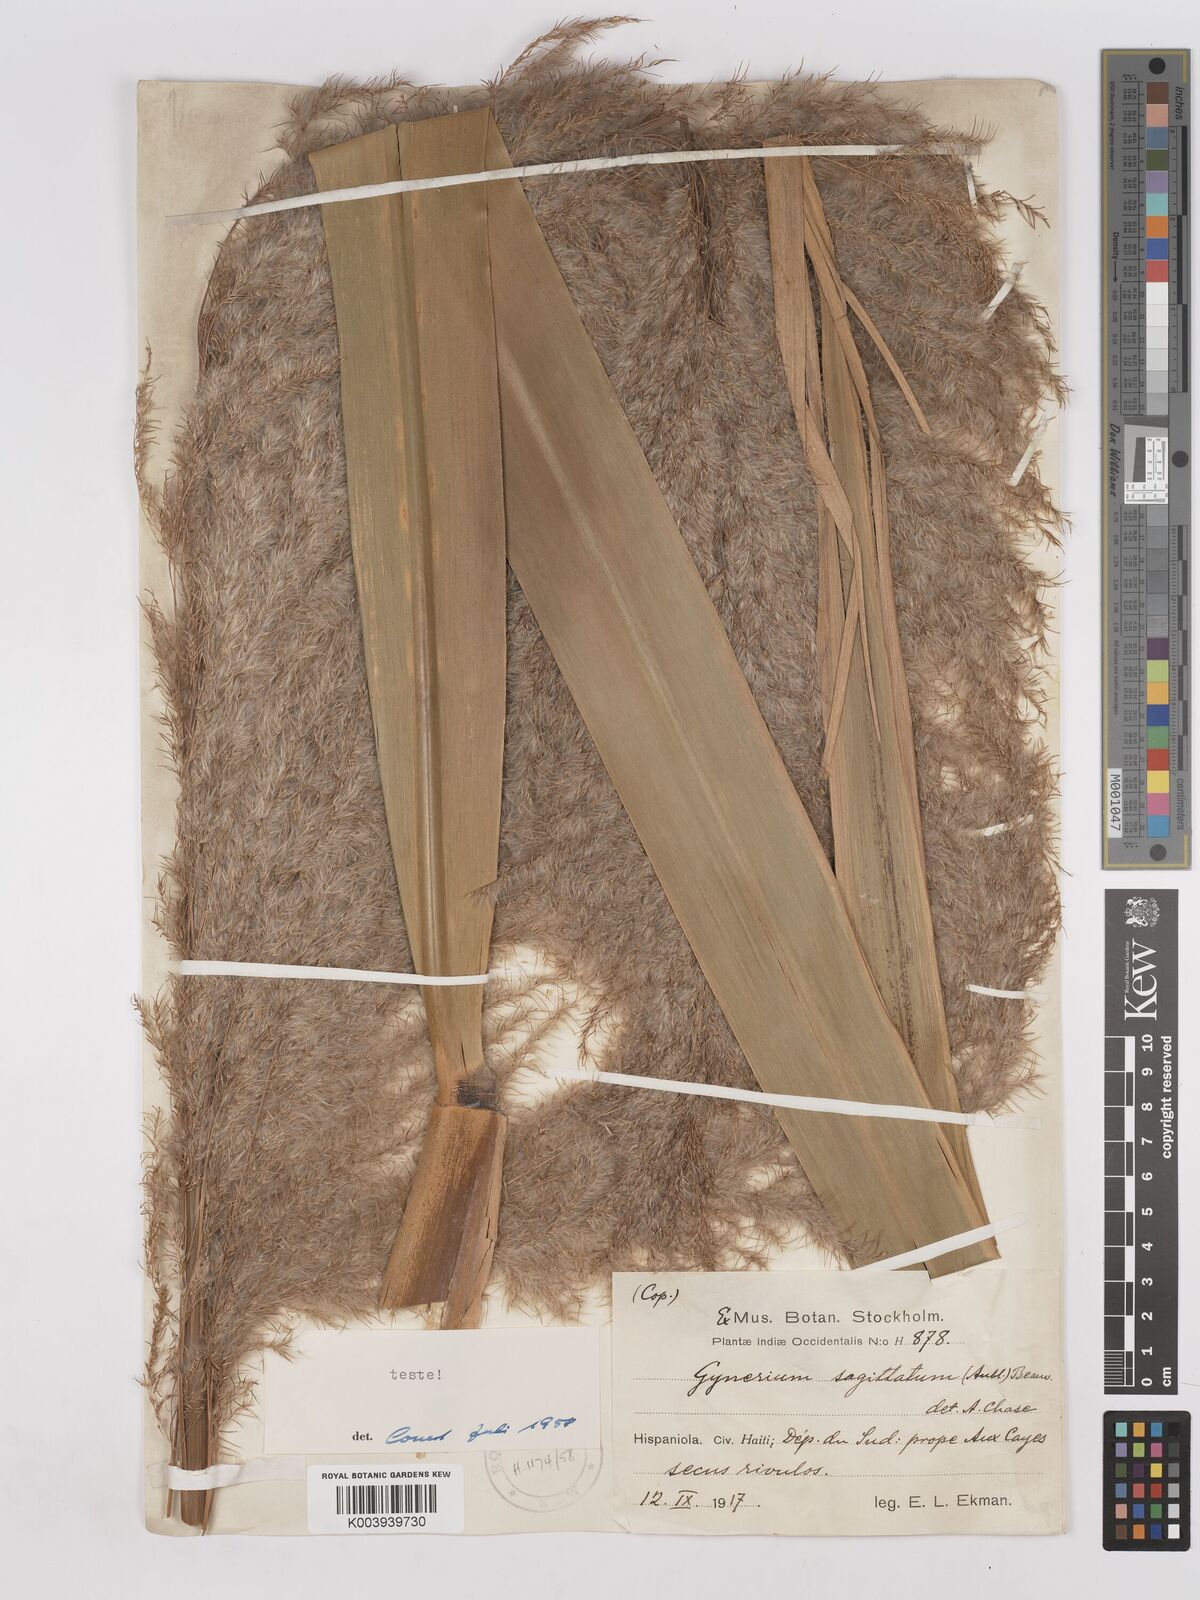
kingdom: Plantae
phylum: Tracheophyta
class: Liliopsida
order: Poales
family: Poaceae
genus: Gynerium
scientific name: Gynerium sagittatum
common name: Wild cane
